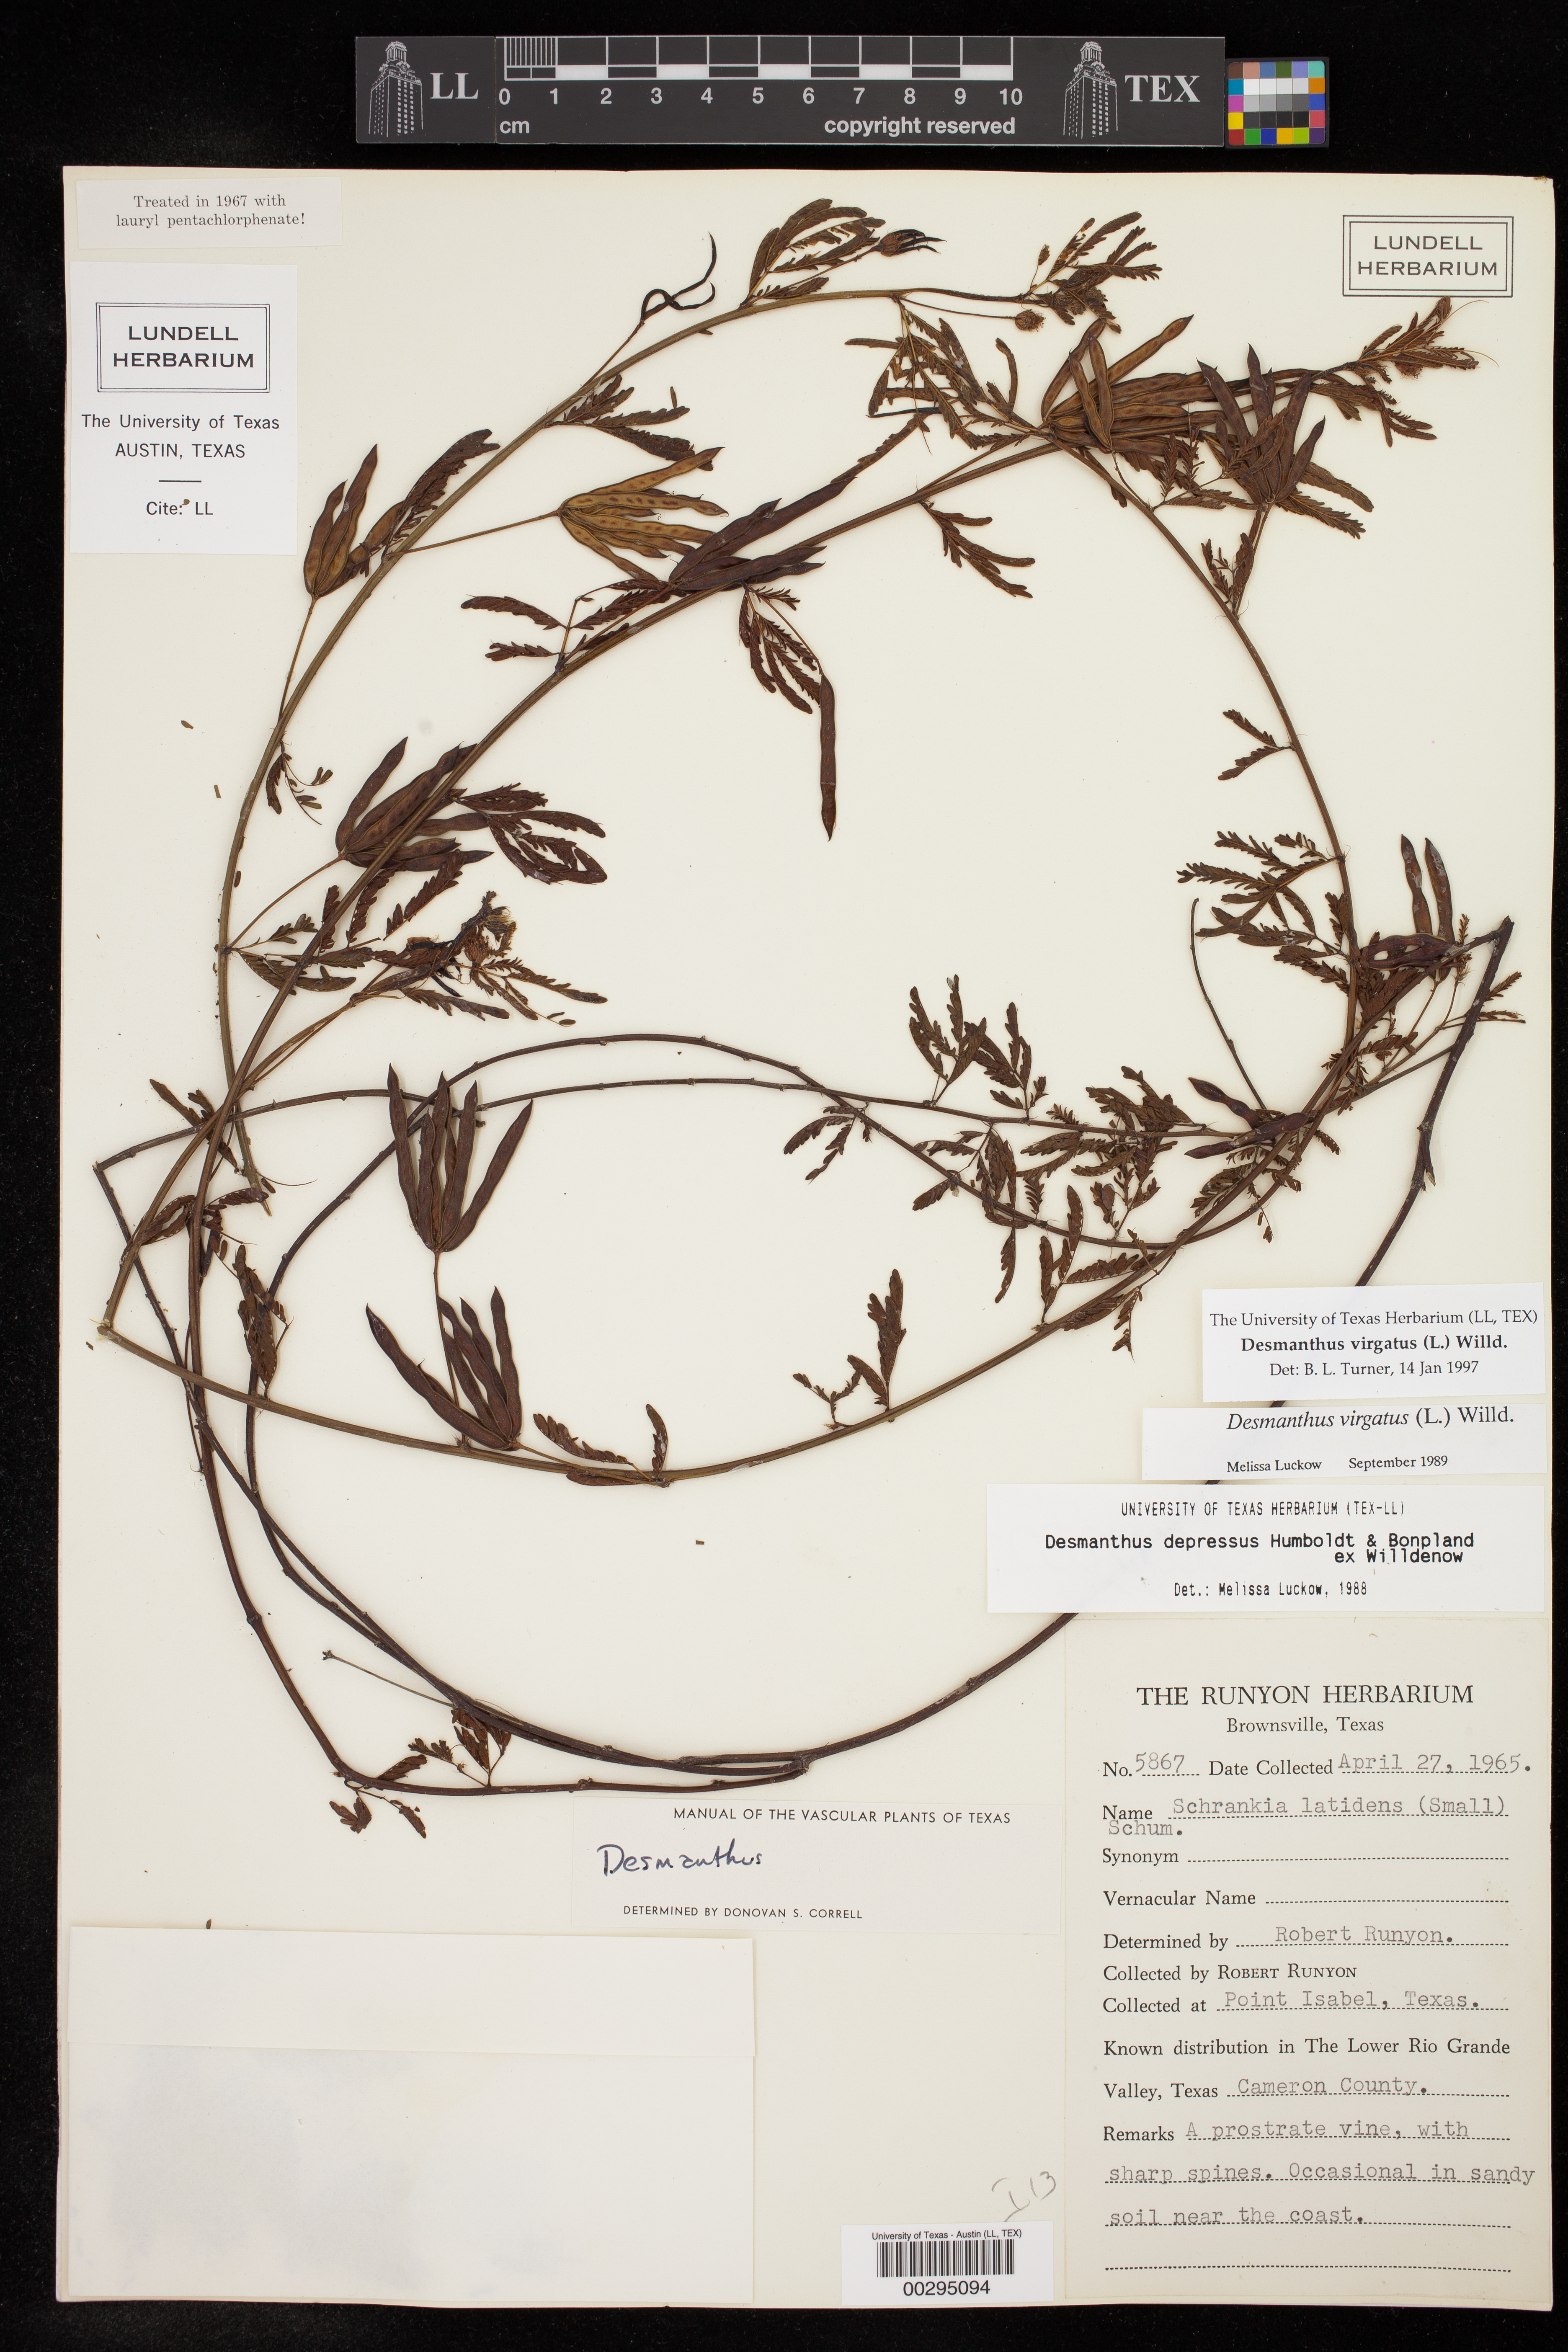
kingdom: Plantae
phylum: Tracheophyta
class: Magnoliopsida
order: Fabales
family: Fabaceae
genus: Desmanthus
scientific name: Desmanthus virgatus
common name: Wild tantan
